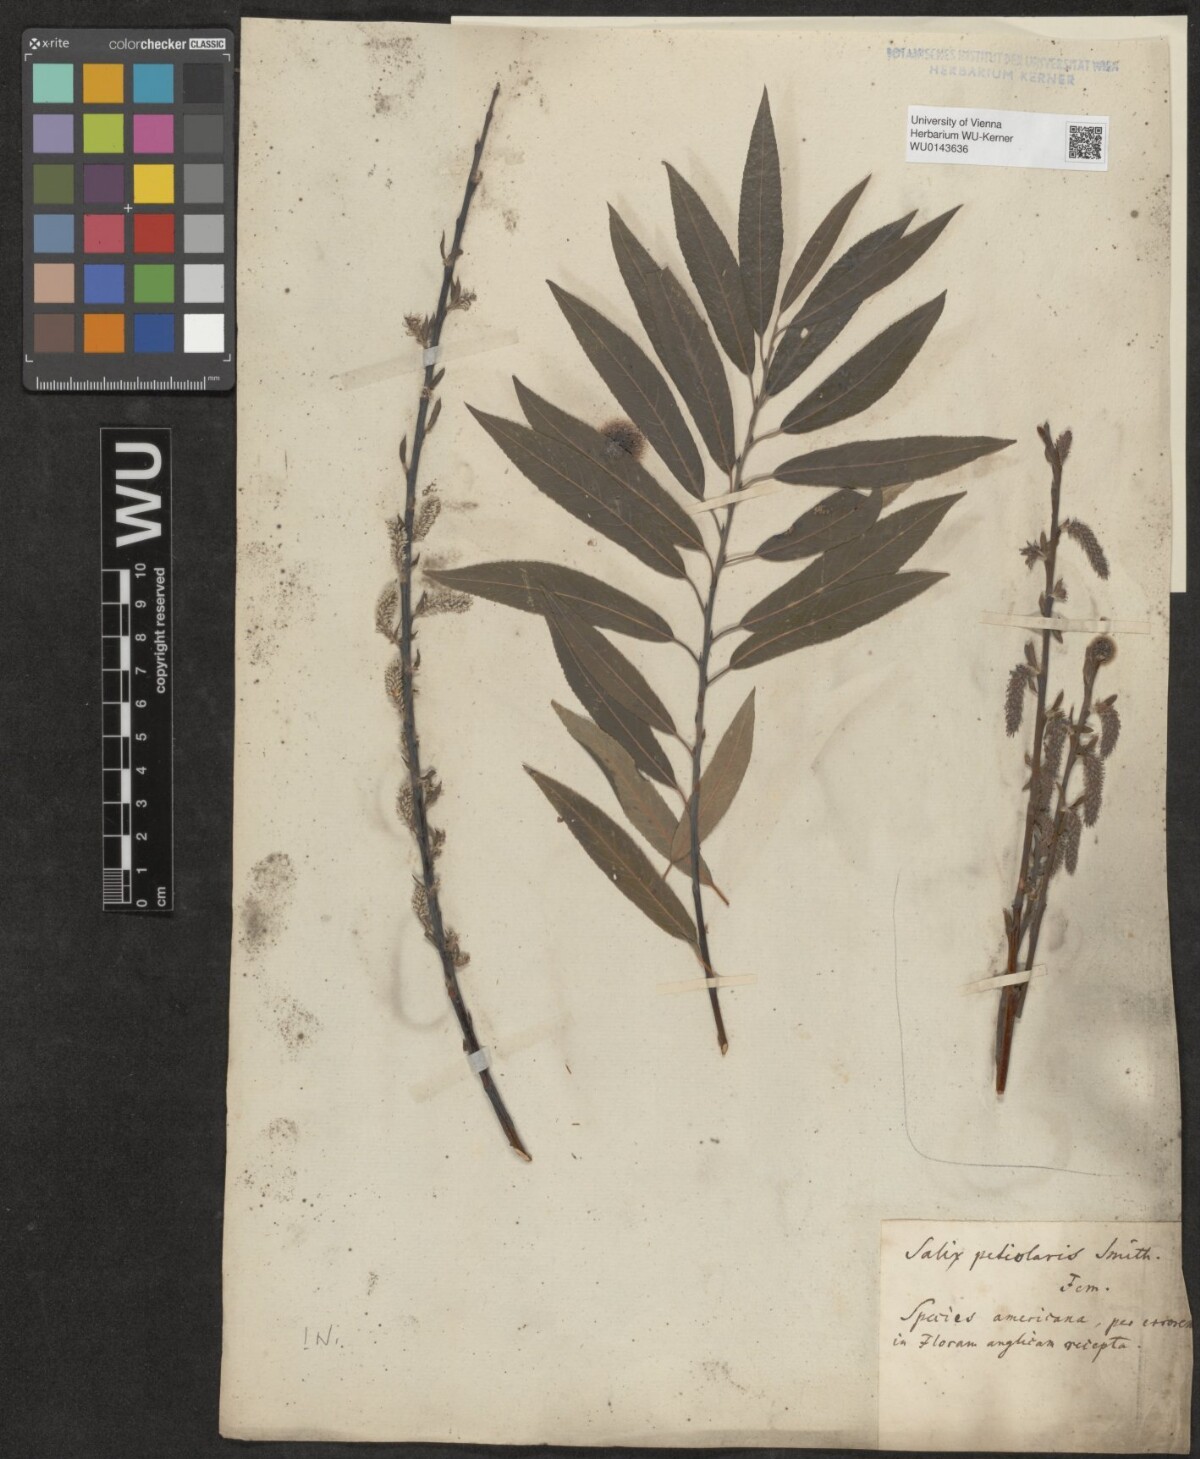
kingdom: Plantae
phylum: Tracheophyta
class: Magnoliopsida
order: Malpighiales
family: Salicaceae
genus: Salix
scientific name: Salix
